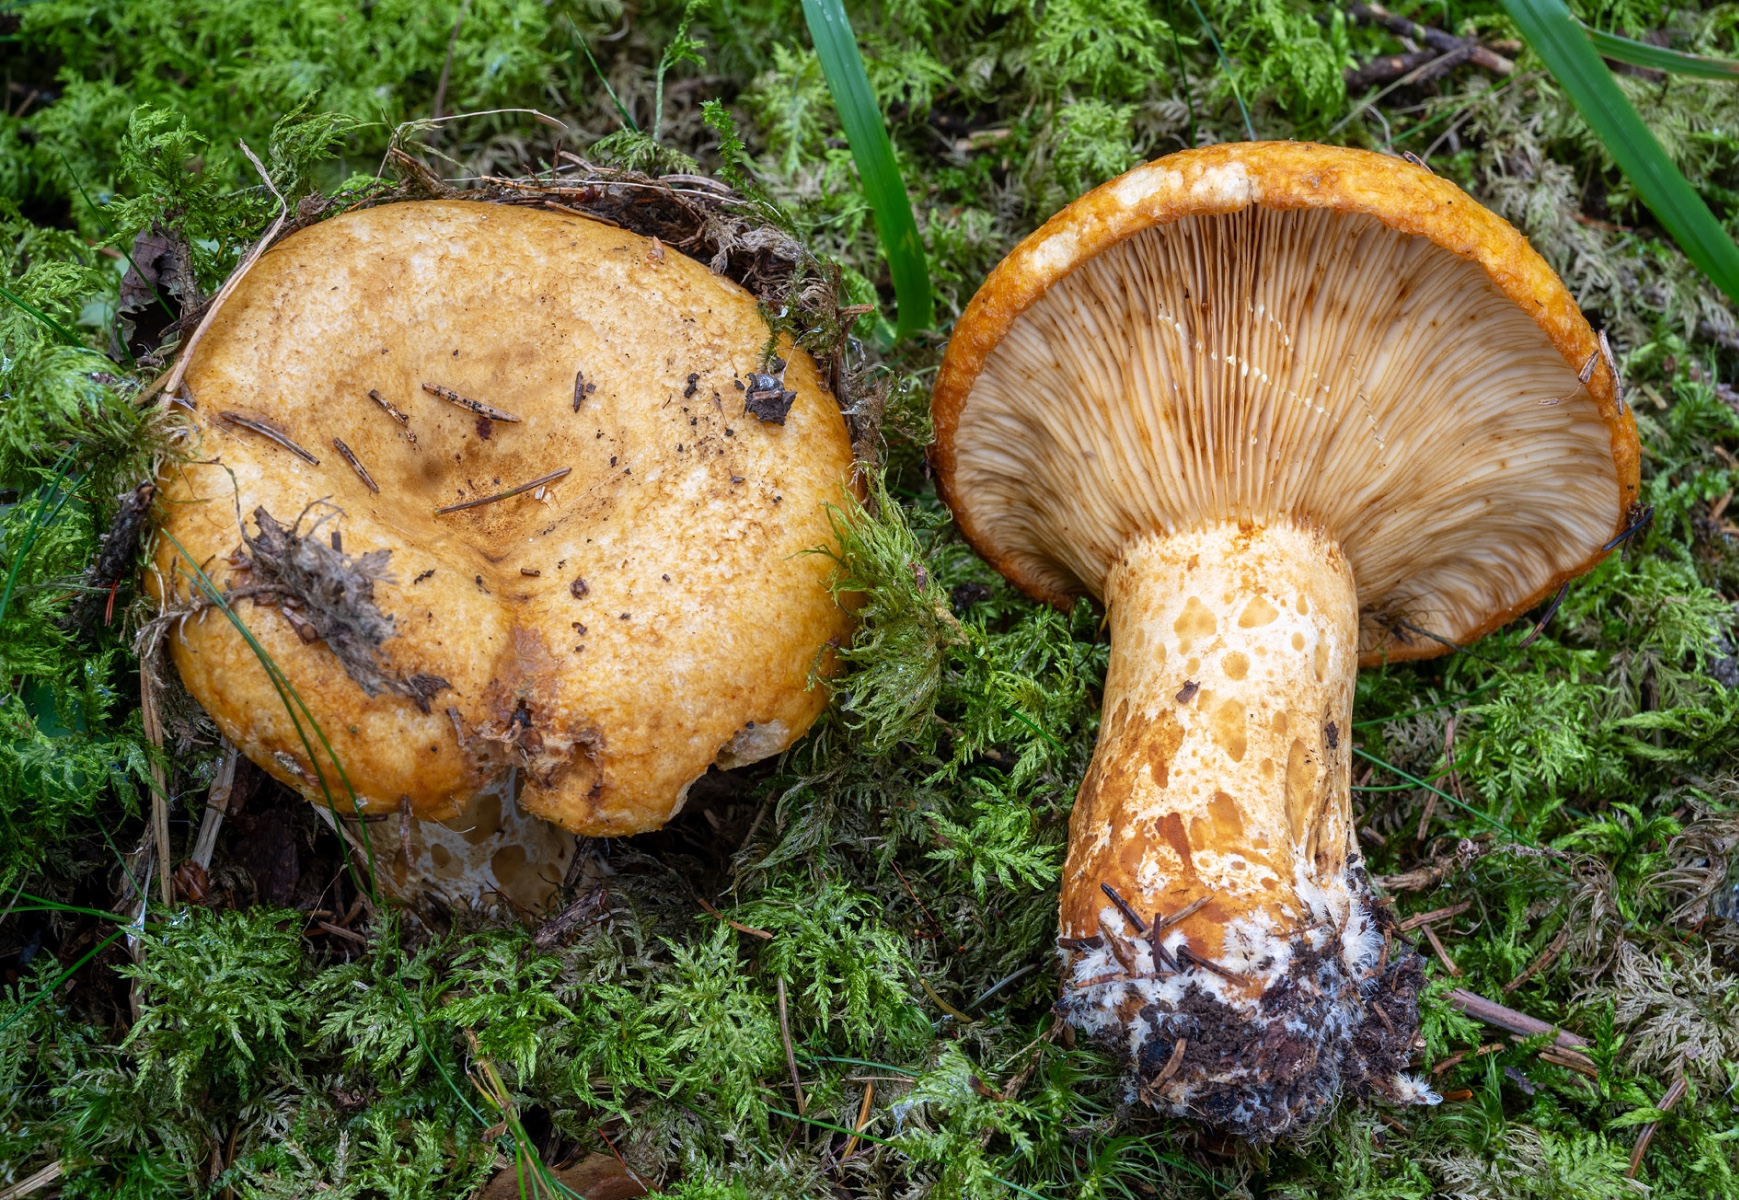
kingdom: Fungi
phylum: Basidiomycota
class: Agaricomycetes
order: Russulales
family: Russulaceae
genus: Lactarius
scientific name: Lactarius scrobiculatus
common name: grubestokket mælkehat
